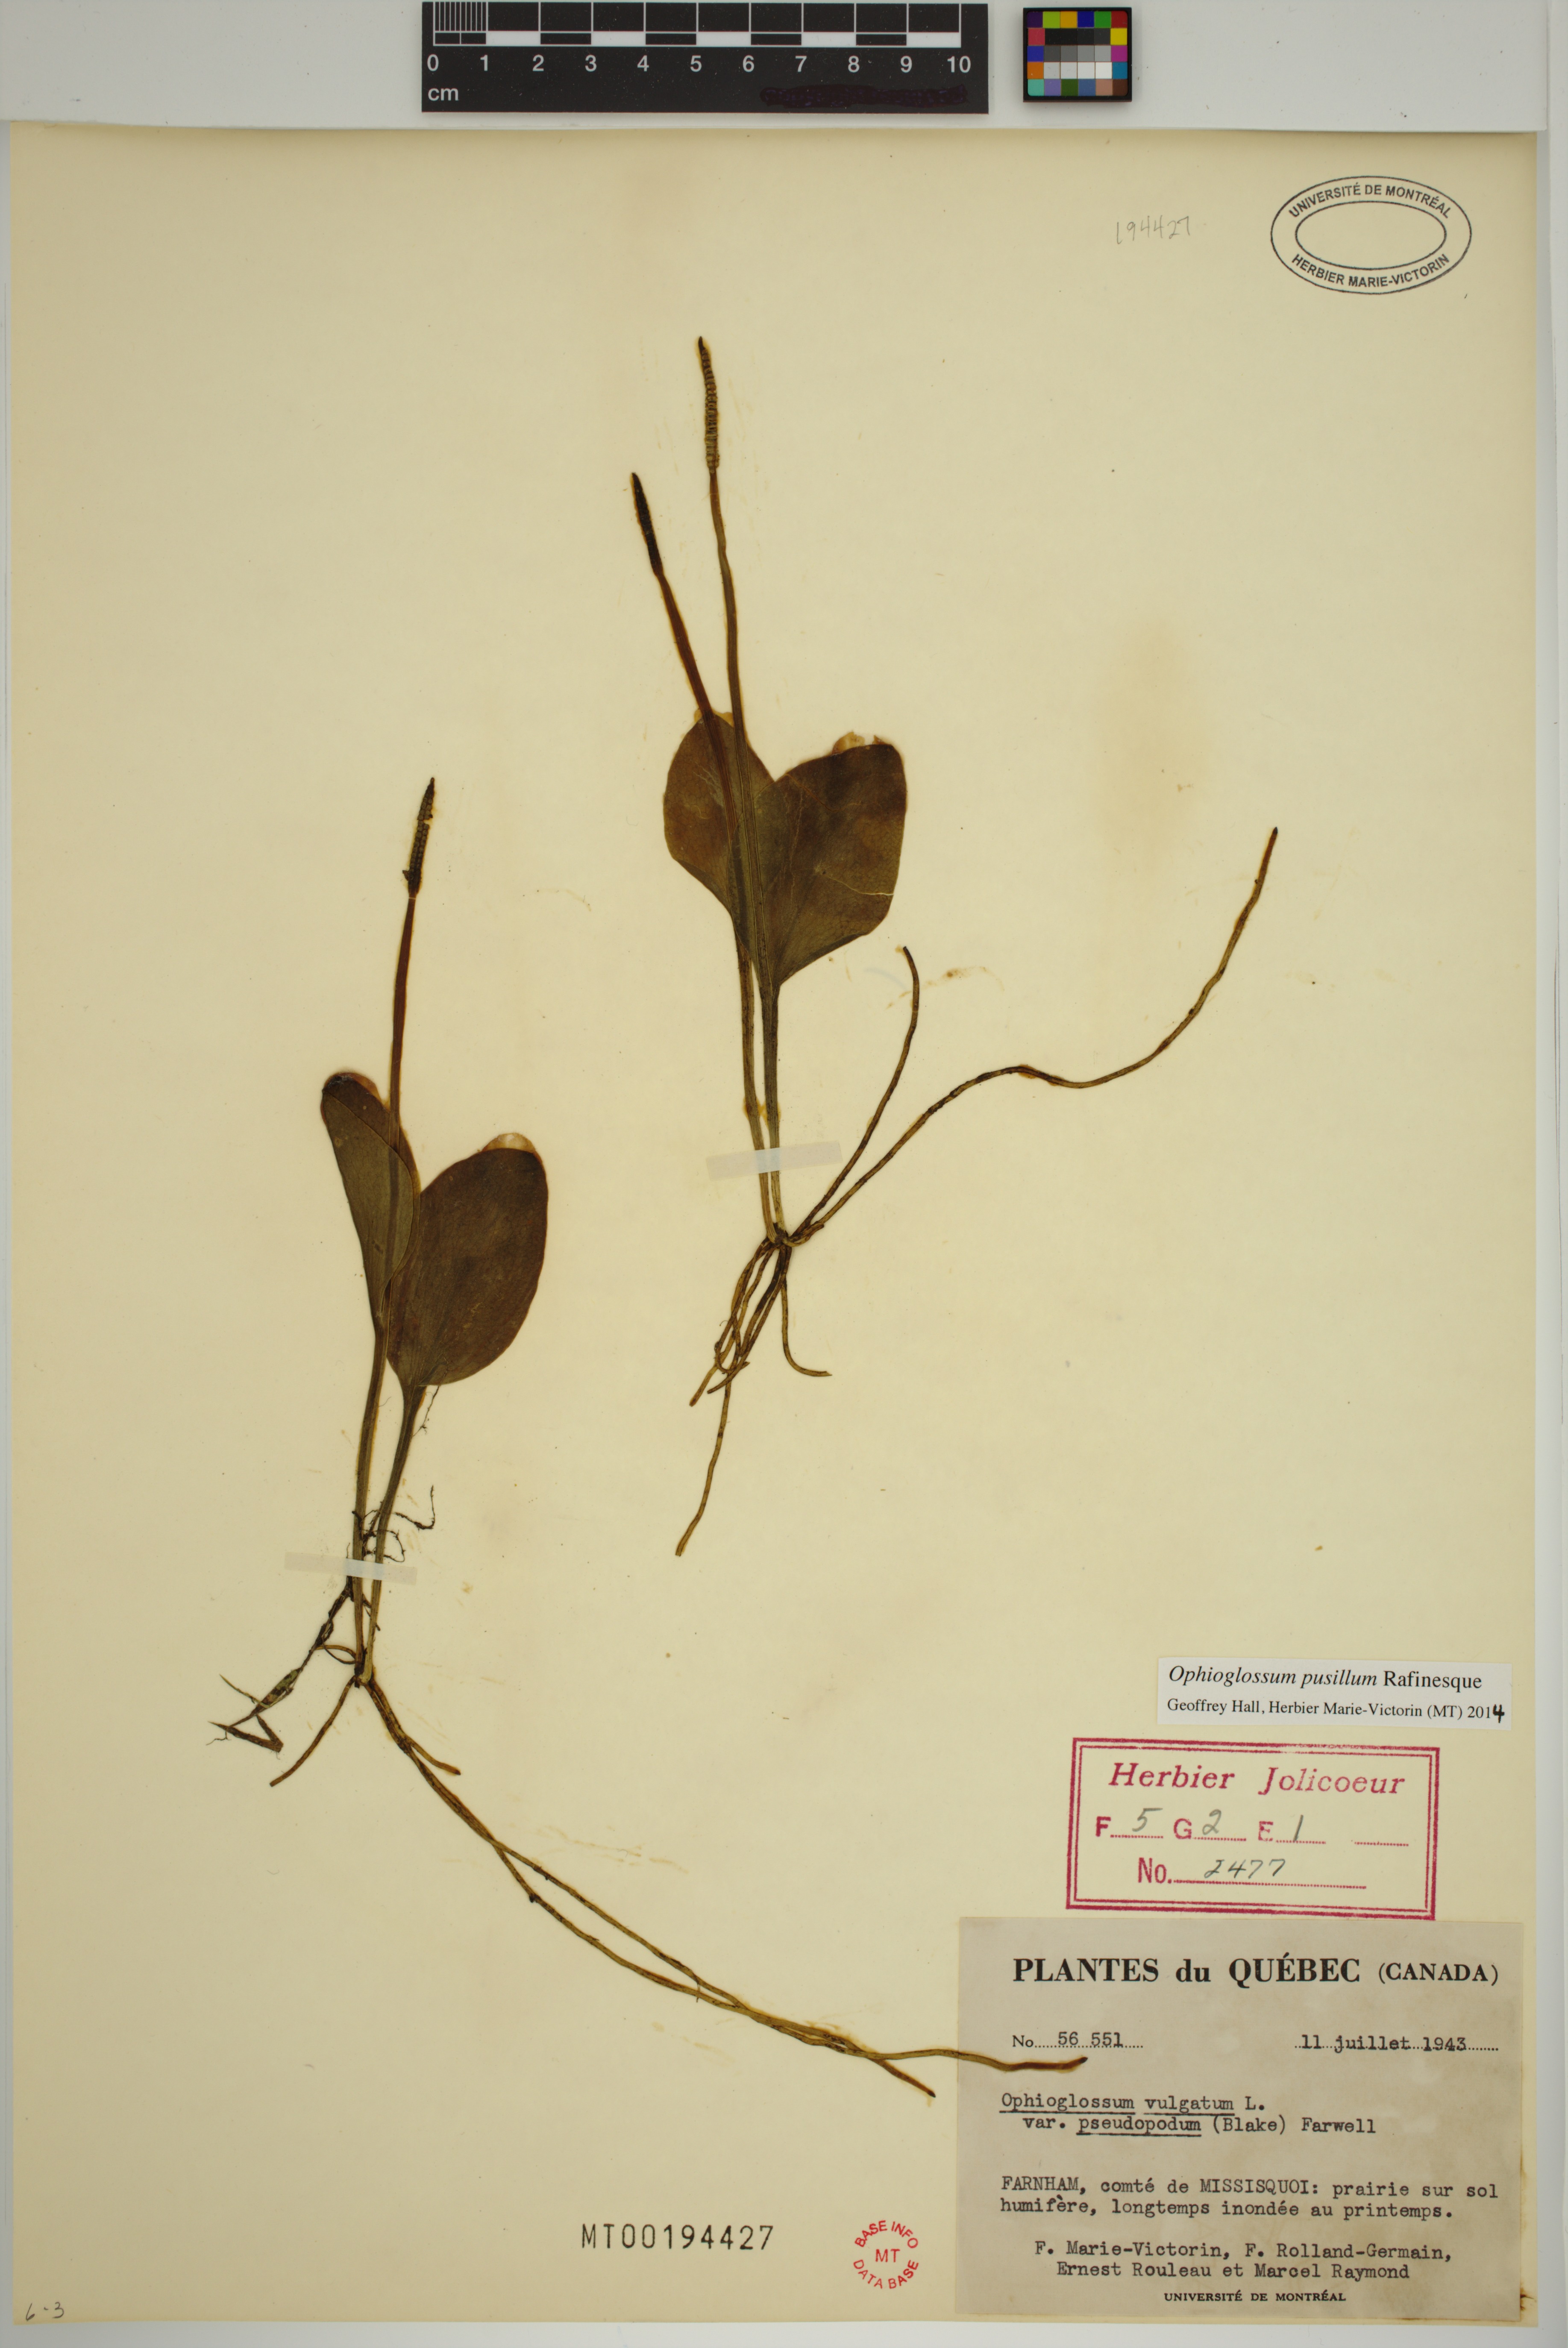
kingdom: Plantae
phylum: Tracheophyta
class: Polypodiopsida
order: Ophioglossales
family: Ophioglossaceae
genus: Ophioglossum
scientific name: Ophioglossum pusillum
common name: Northern adder's-tongue
